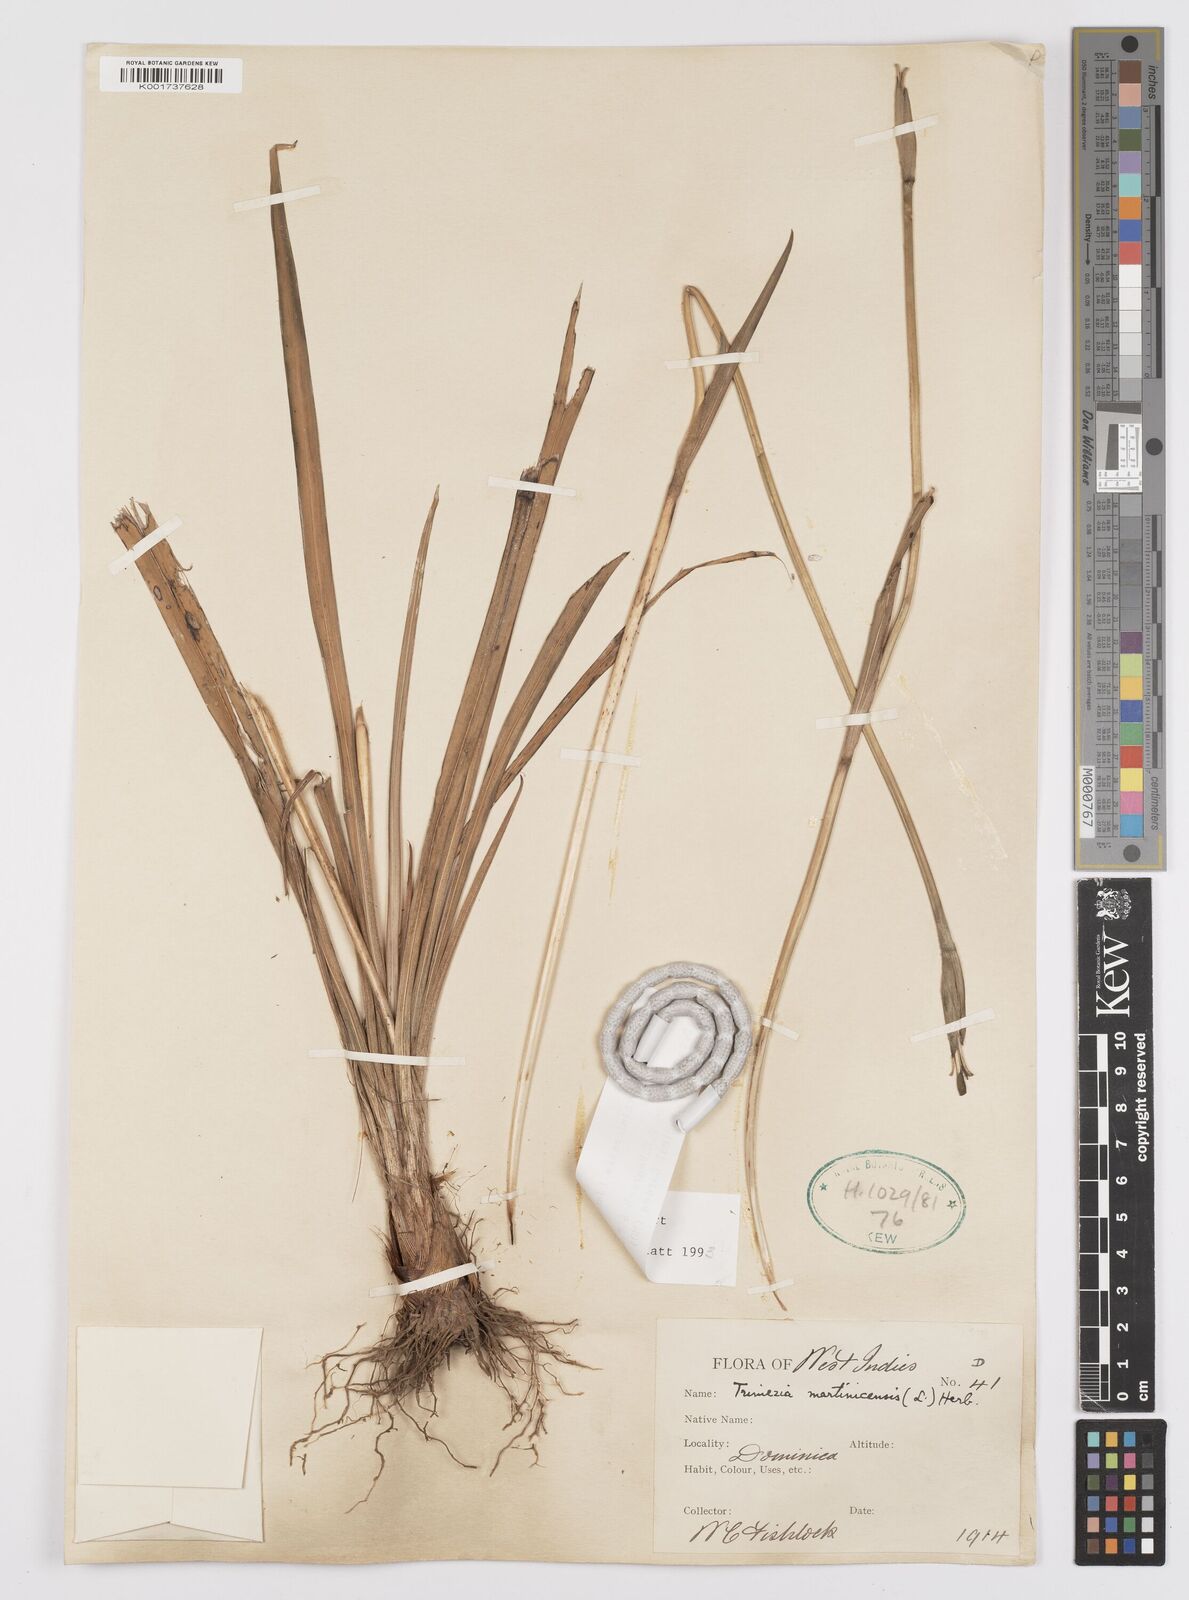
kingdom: Plantae
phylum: Tracheophyta
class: Liliopsida
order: Asparagales
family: Iridaceae
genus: Trimezia
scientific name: Trimezia martinicensis
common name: Martinique trimezia
